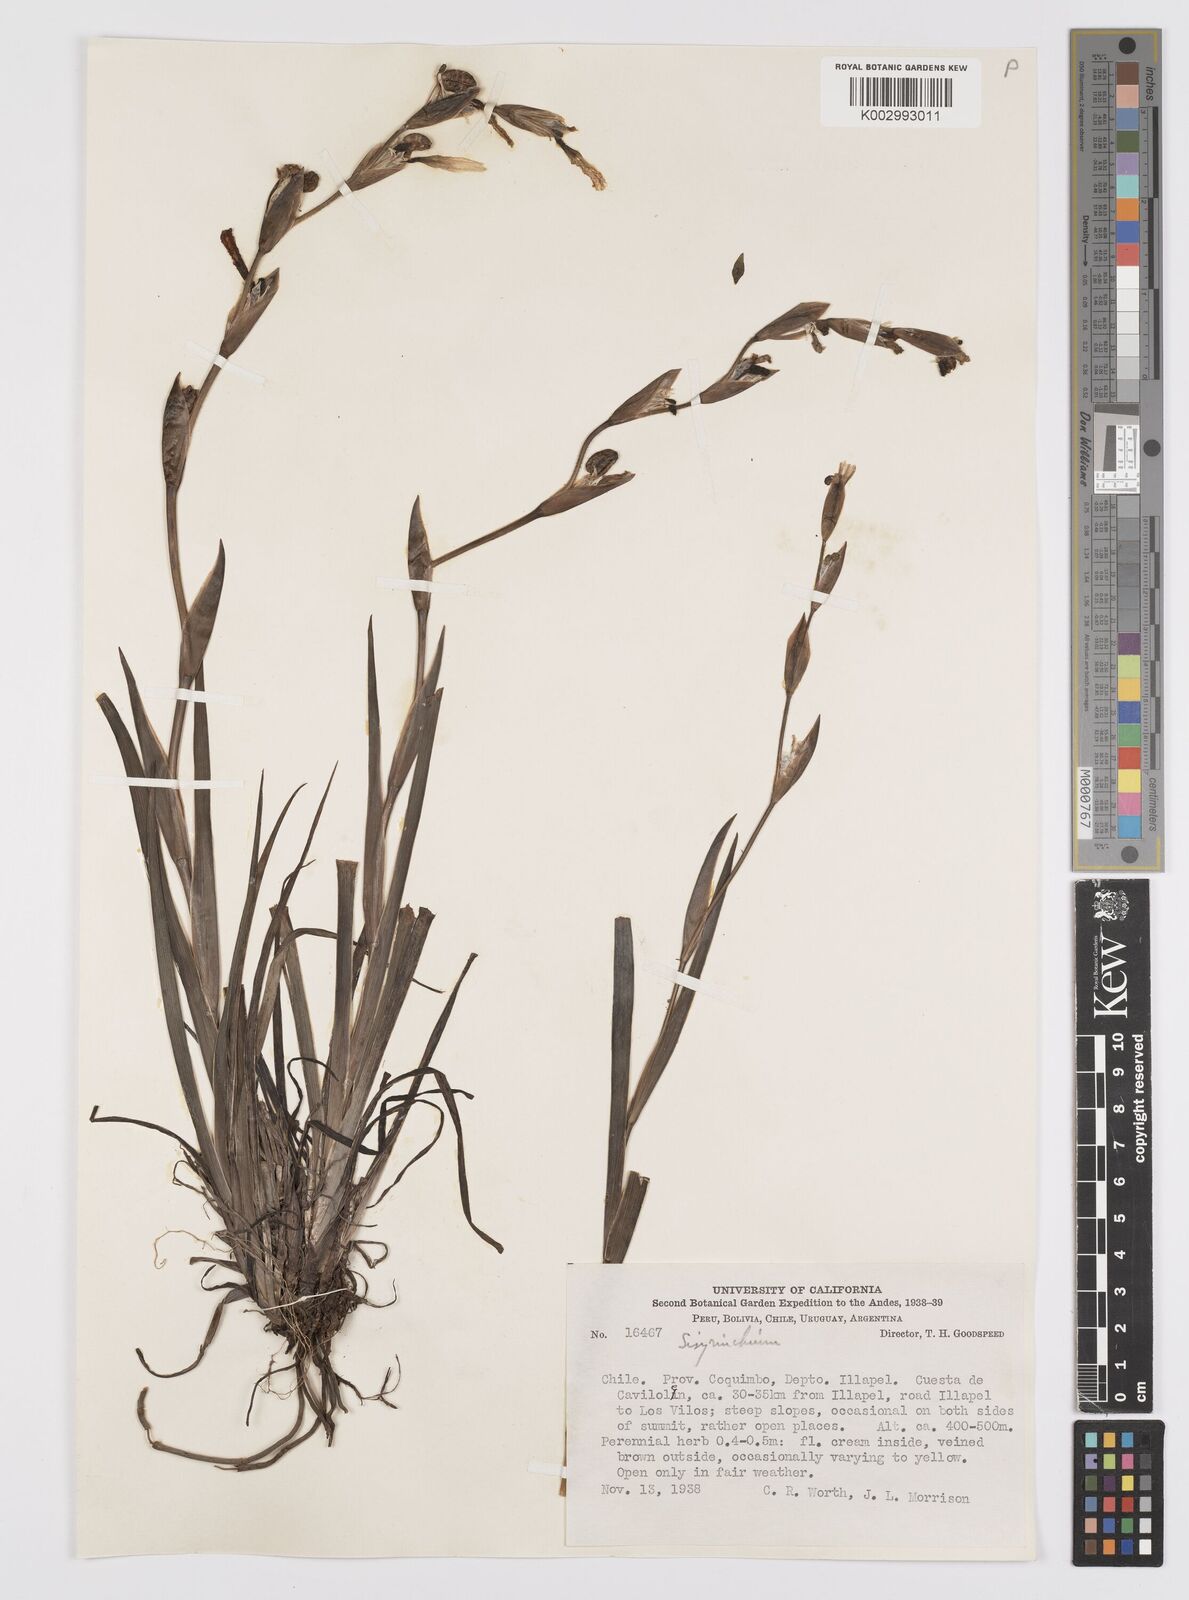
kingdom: Plantae
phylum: Tracheophyta
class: Liliopsida
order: Asparagales
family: Iridaceae
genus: Sisyrinchium
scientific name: Sisyrinchium
